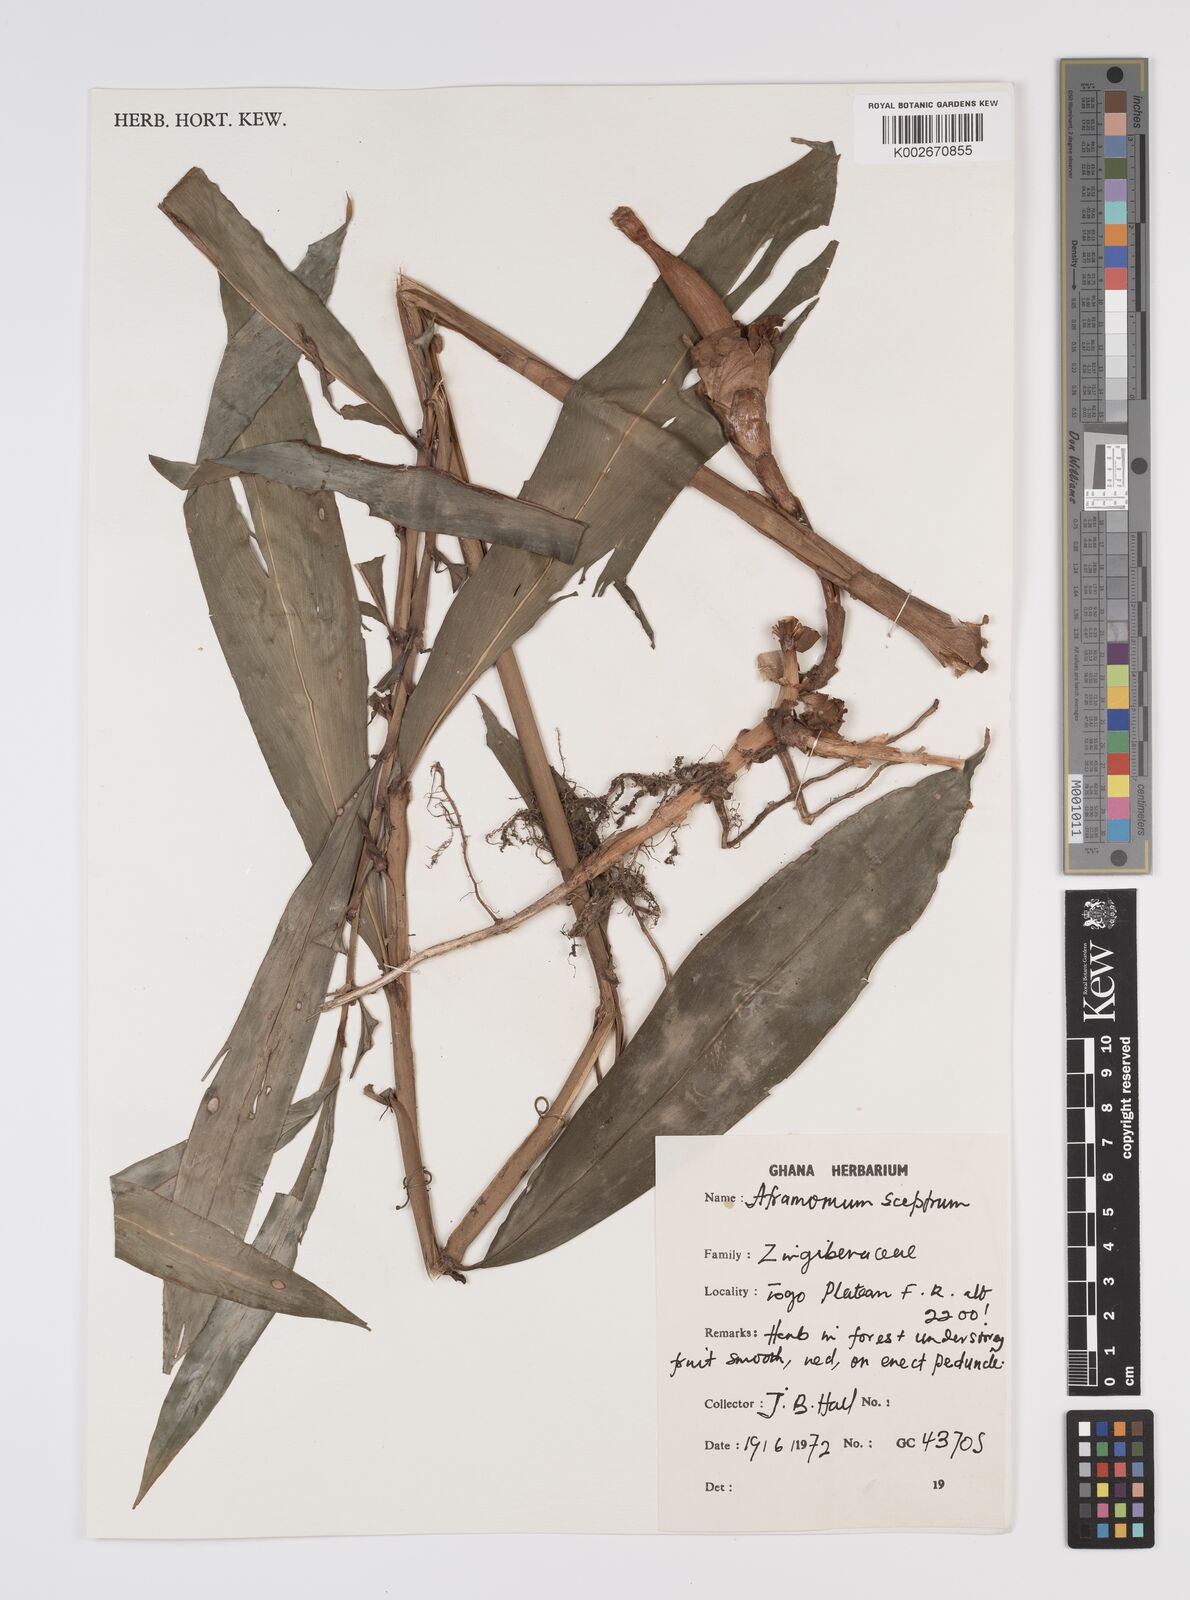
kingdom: Plantae
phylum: Tracheophyta
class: Liliopsida
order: Zingiberales
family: Zingiberaceae
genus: Aframomum
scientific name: Aframomum cereum
